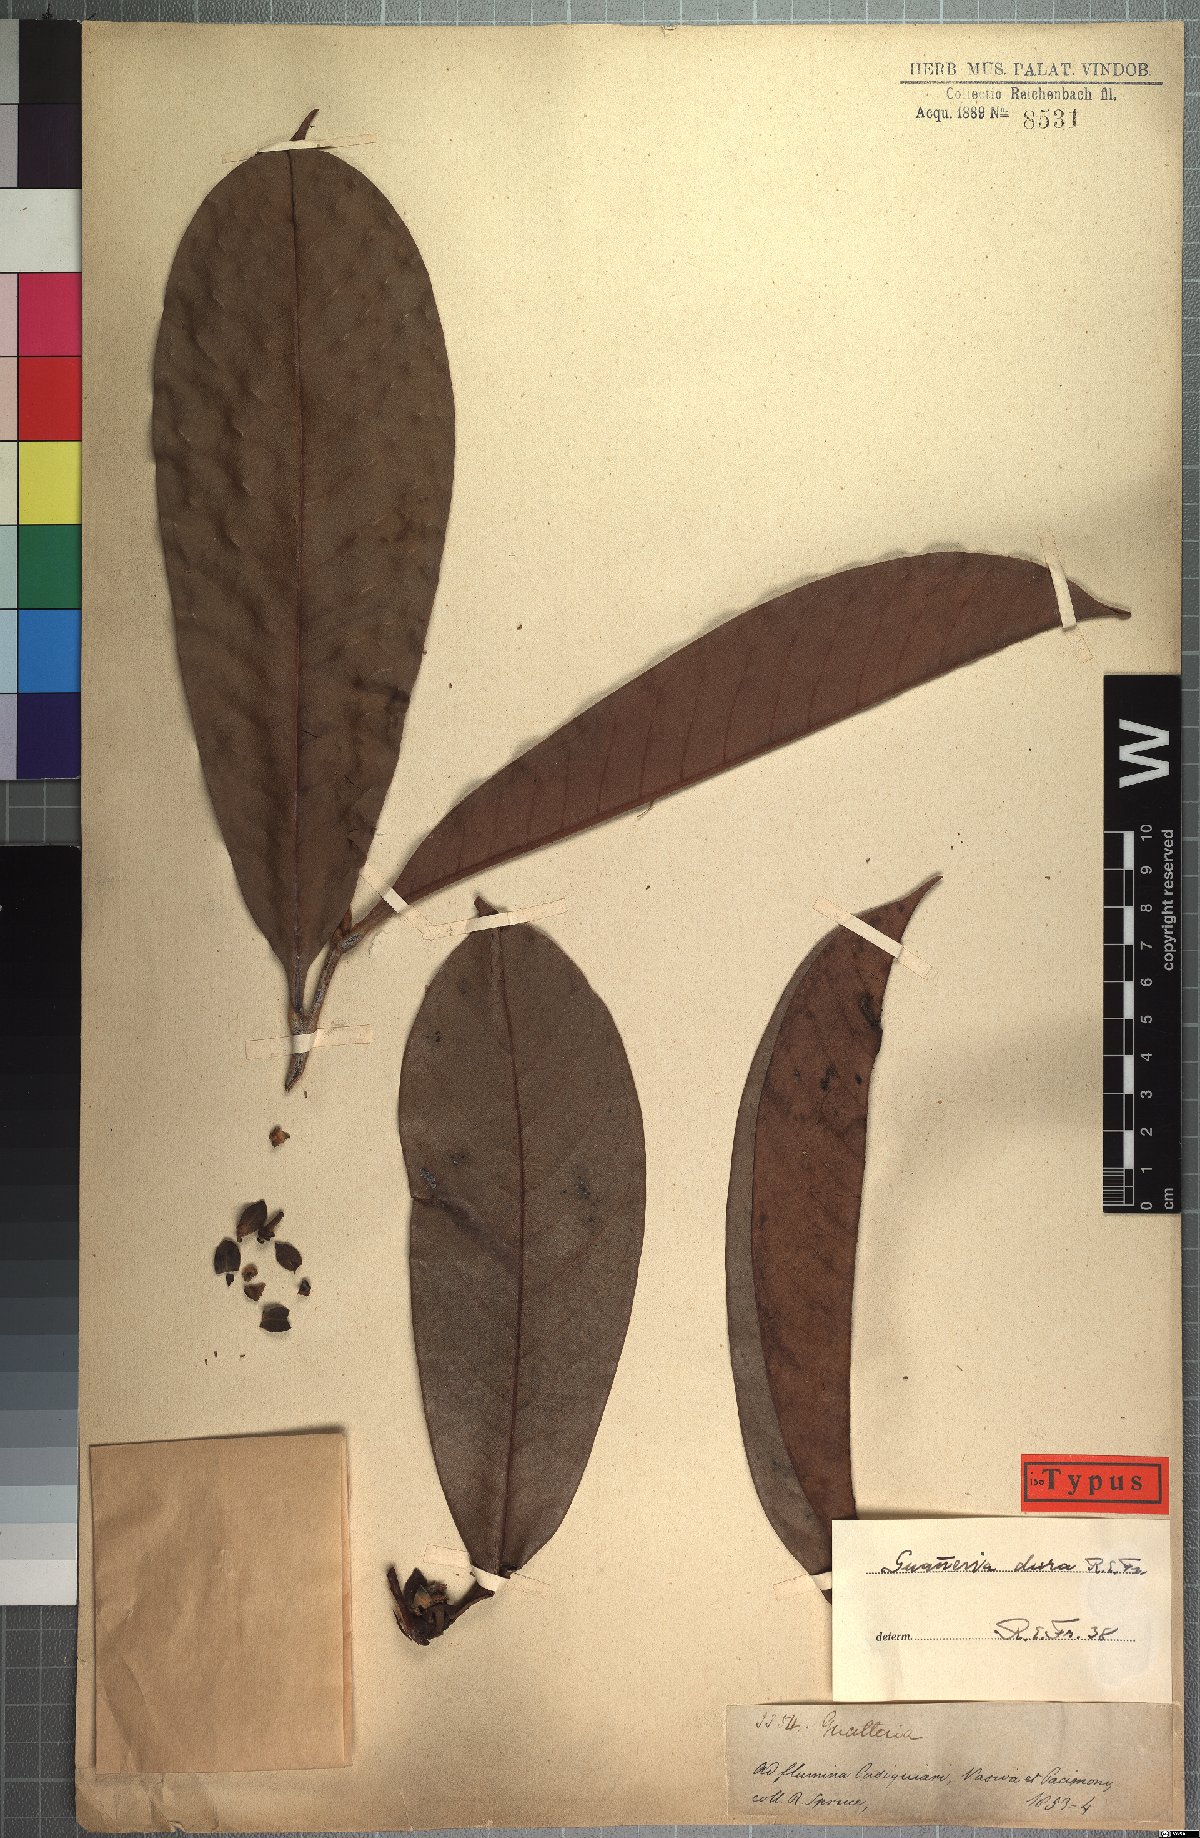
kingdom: Plantae
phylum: Tracheophyta
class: Magnoliopsida
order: Magnoliales
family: Annonaceae
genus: Guatteria
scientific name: Guatteria dura
